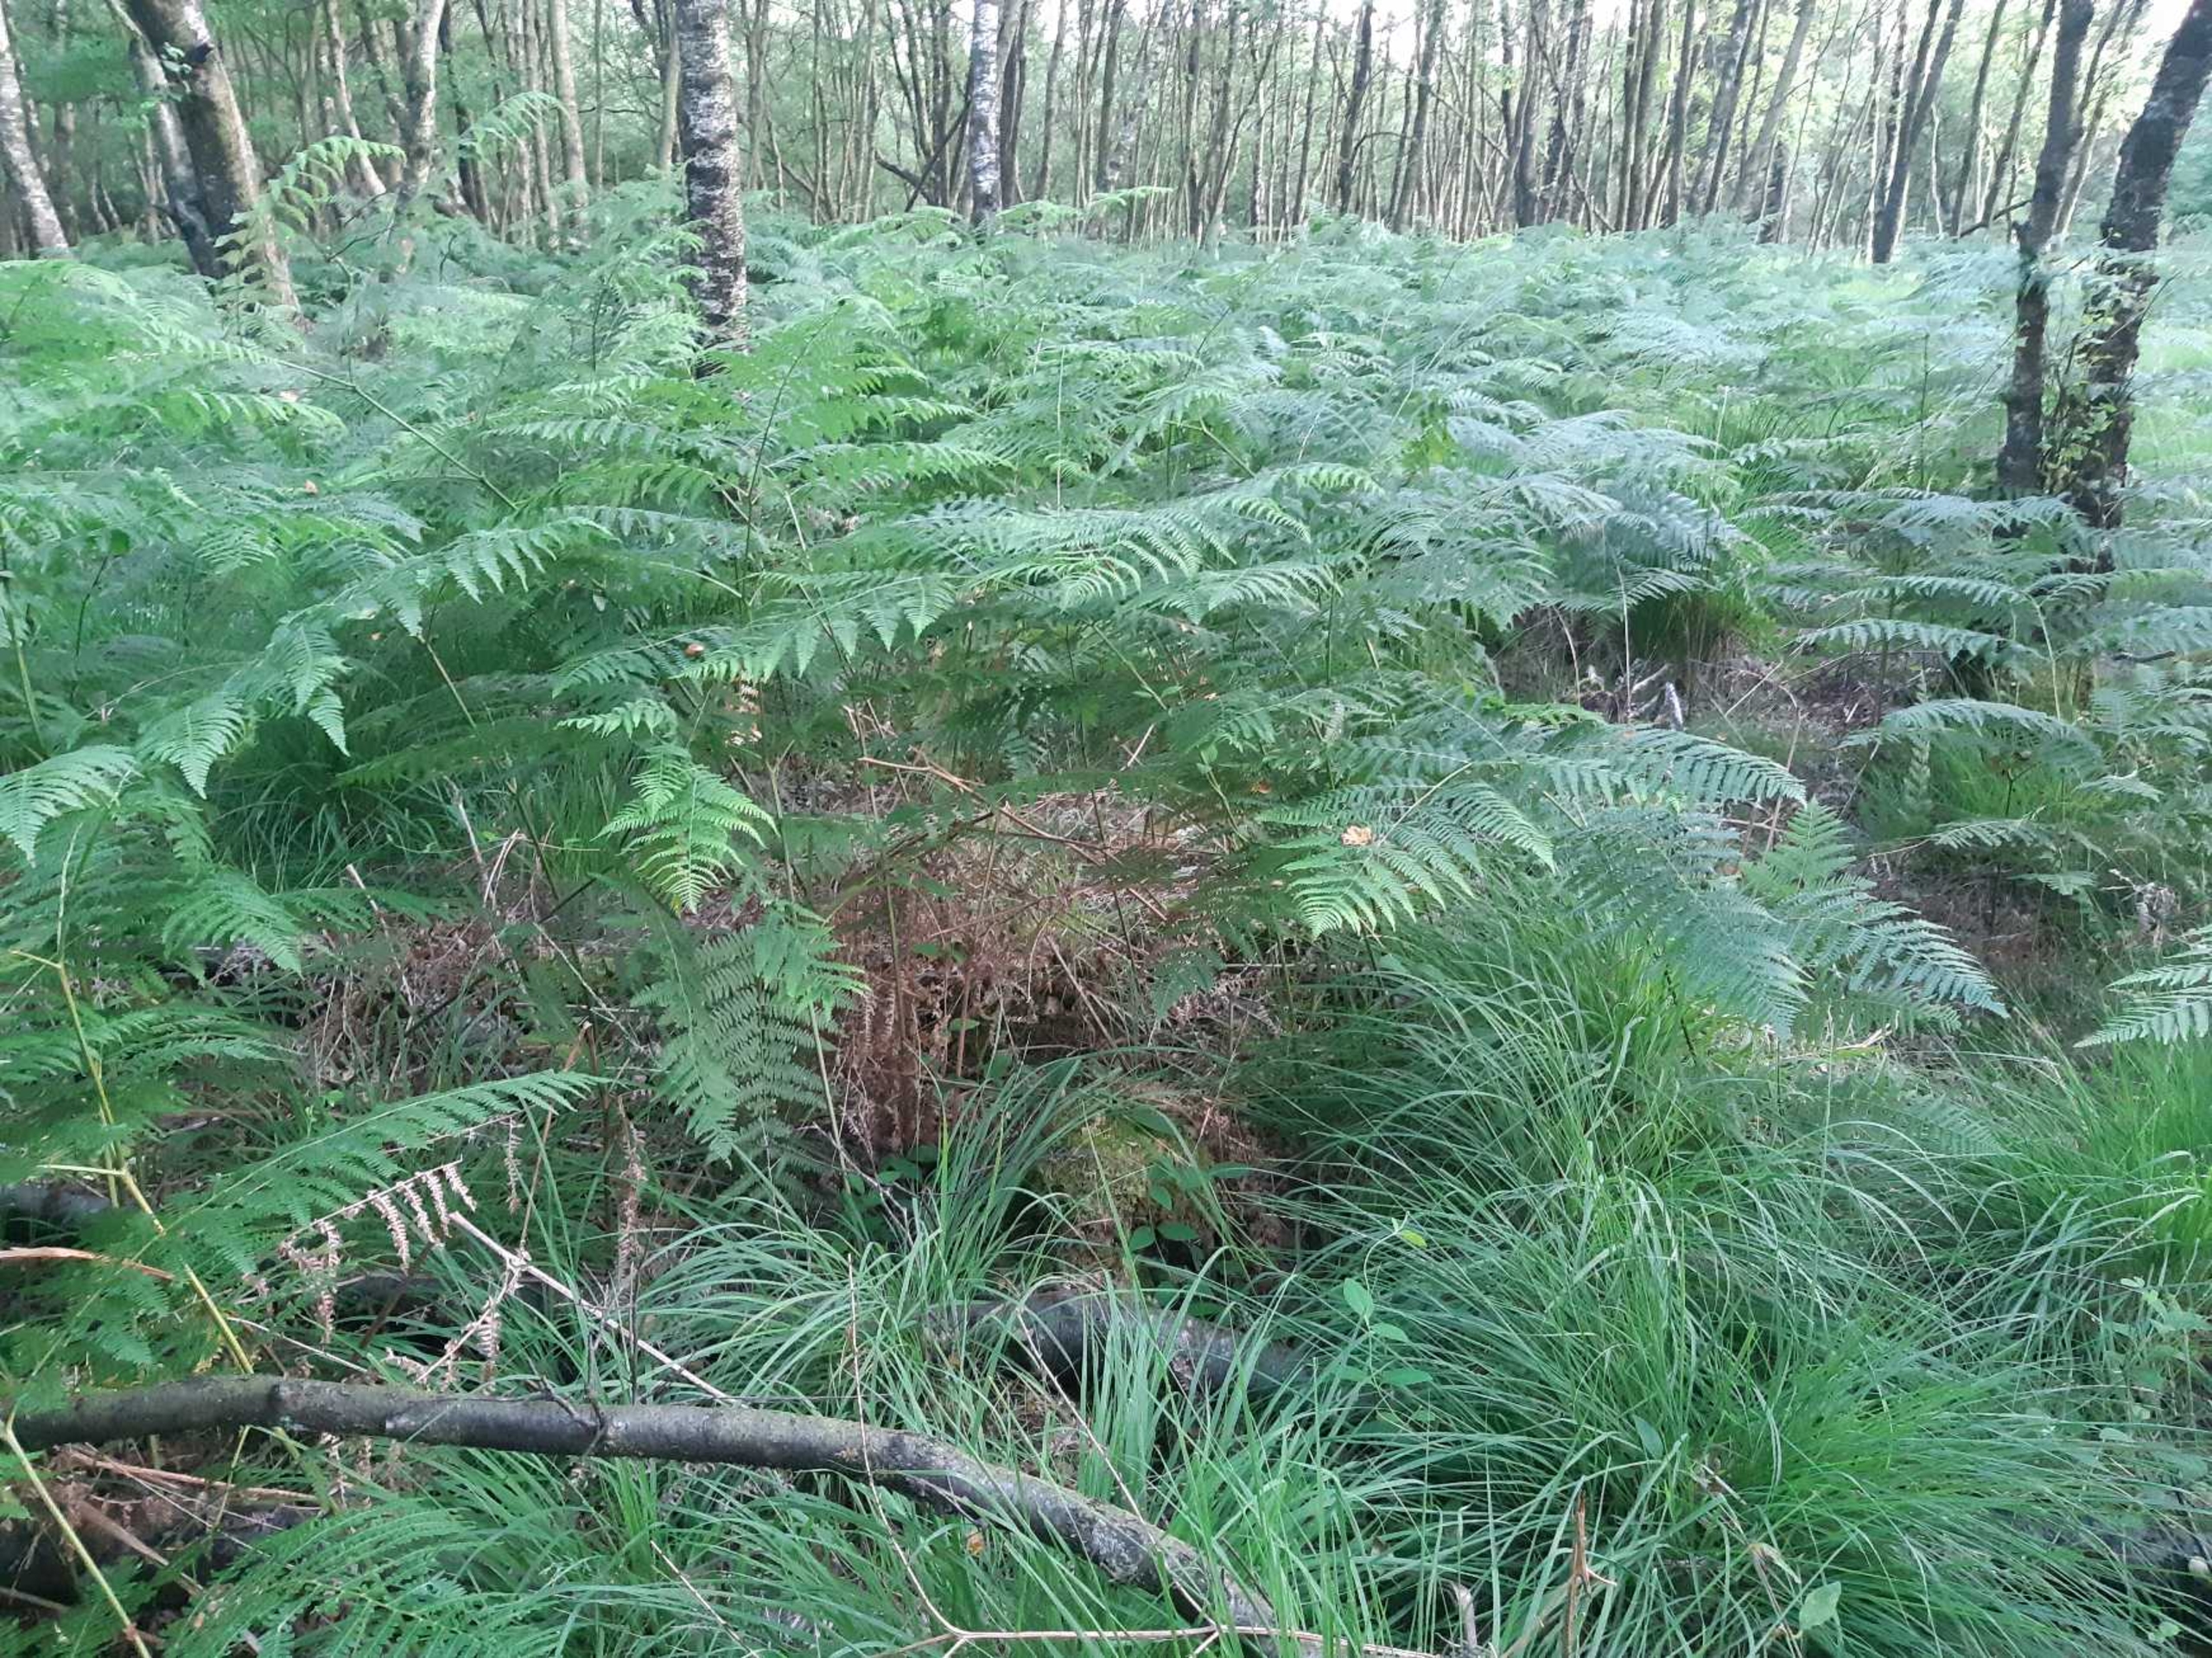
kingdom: Plantae
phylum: Tracheophyta
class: Polypodiopsida
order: Polypodiales
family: Dennstaedtiaceae
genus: Pteridium
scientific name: Pteridium aquilinum
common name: Ørnebregne
